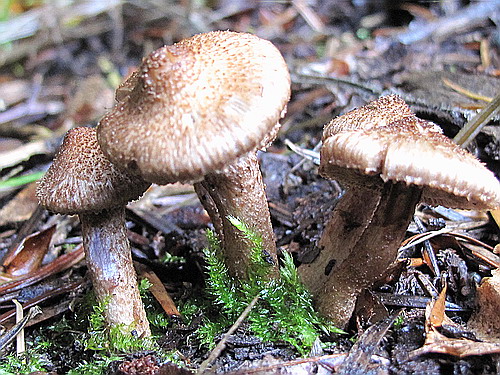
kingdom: Fungi
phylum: Basidiomycota
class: Agaricomycetes
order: Agaricales
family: Inocybaceae
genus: Inocybe
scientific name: Inocybe cincinnata
